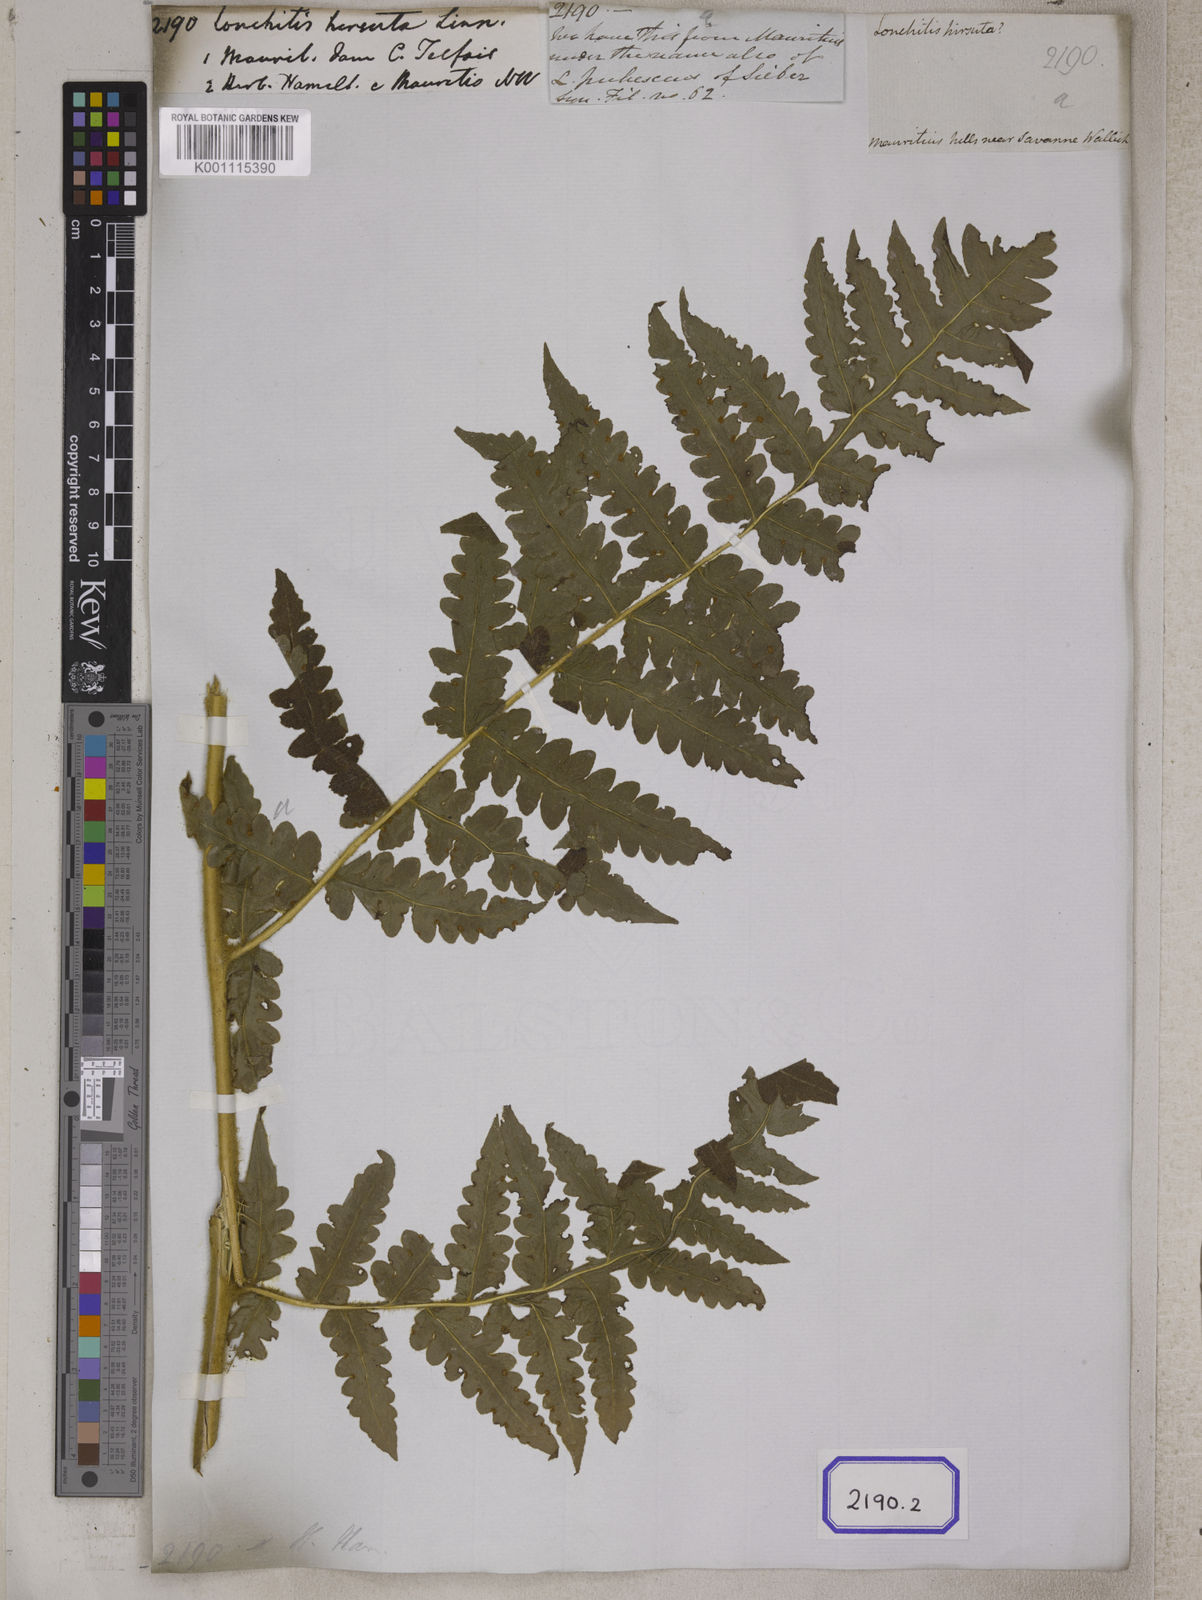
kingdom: Plantae
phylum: Tracheophyta
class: Polypodiopsida
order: Polypodiales
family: Lonchitidaceae
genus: Lonchitis
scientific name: Lonchitis hirsuta
